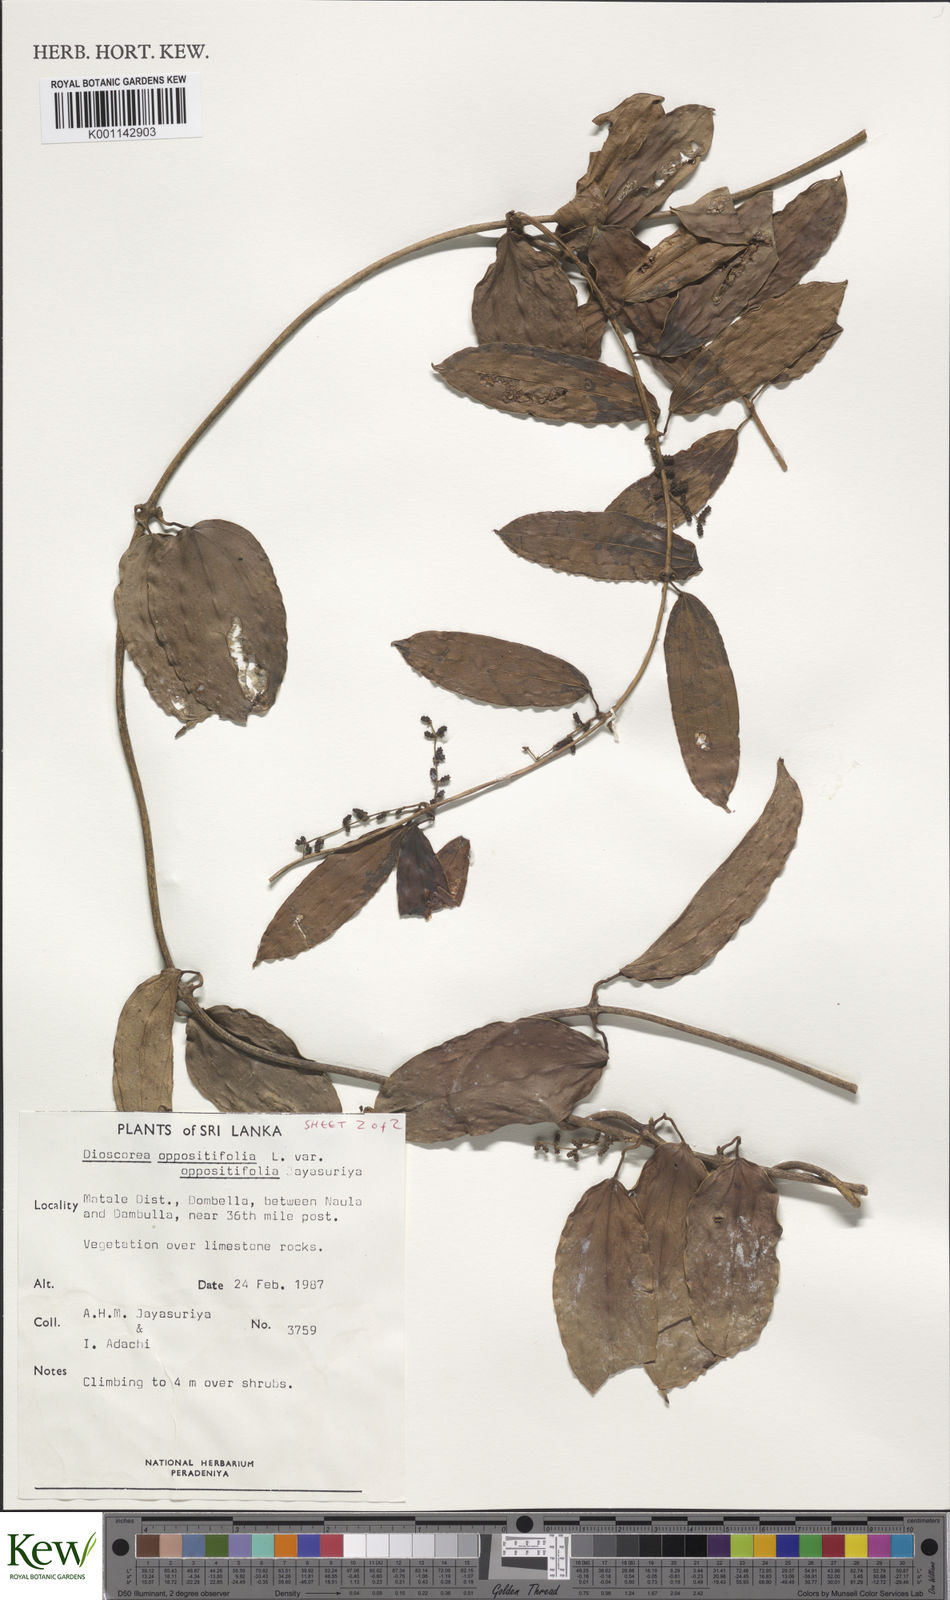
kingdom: Plantae
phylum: Tracheophyta
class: Liliopsida
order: Dioscoreales
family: Dioscoreaceae
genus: Dioscorea
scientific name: Dioscorea oppositifolia
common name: Chinese yam
